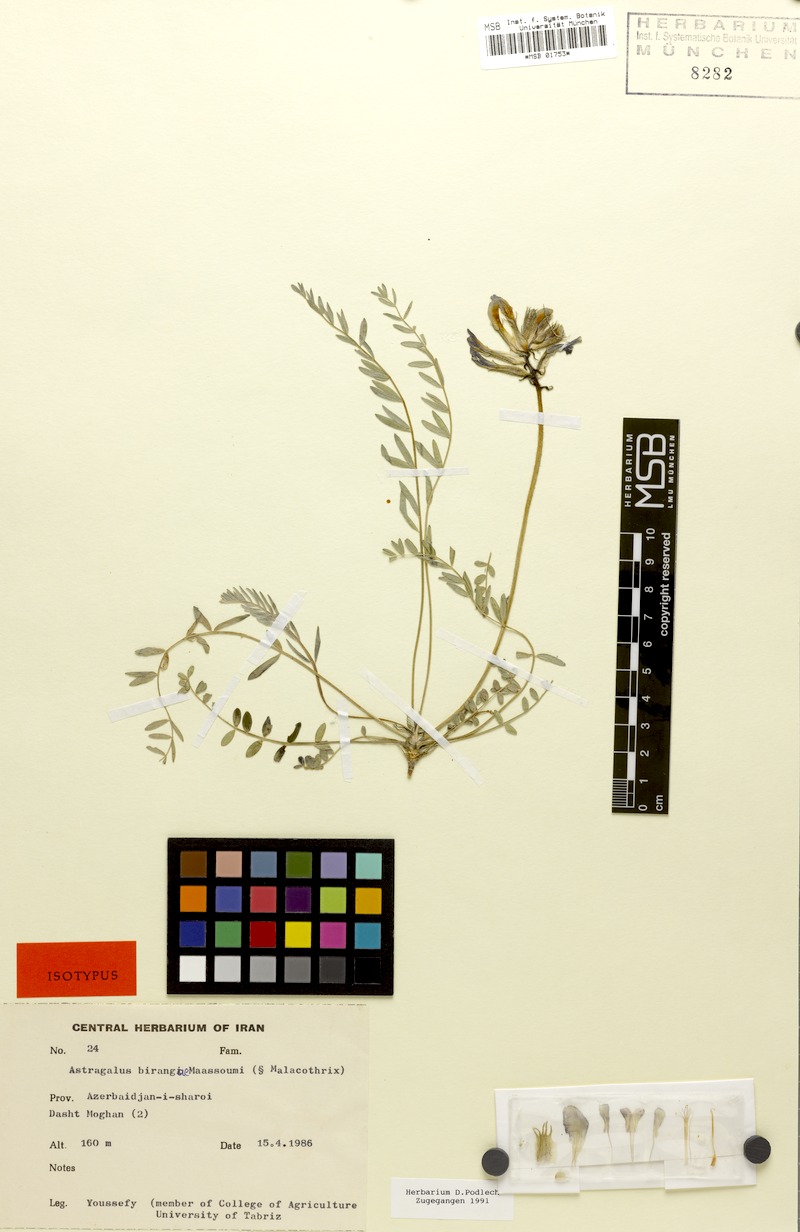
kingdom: Plantae
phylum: Tracheophyta
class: Magnoliopsida
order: Fabales
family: Fabaceae
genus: Astragalus
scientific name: Astragalus birangiae
